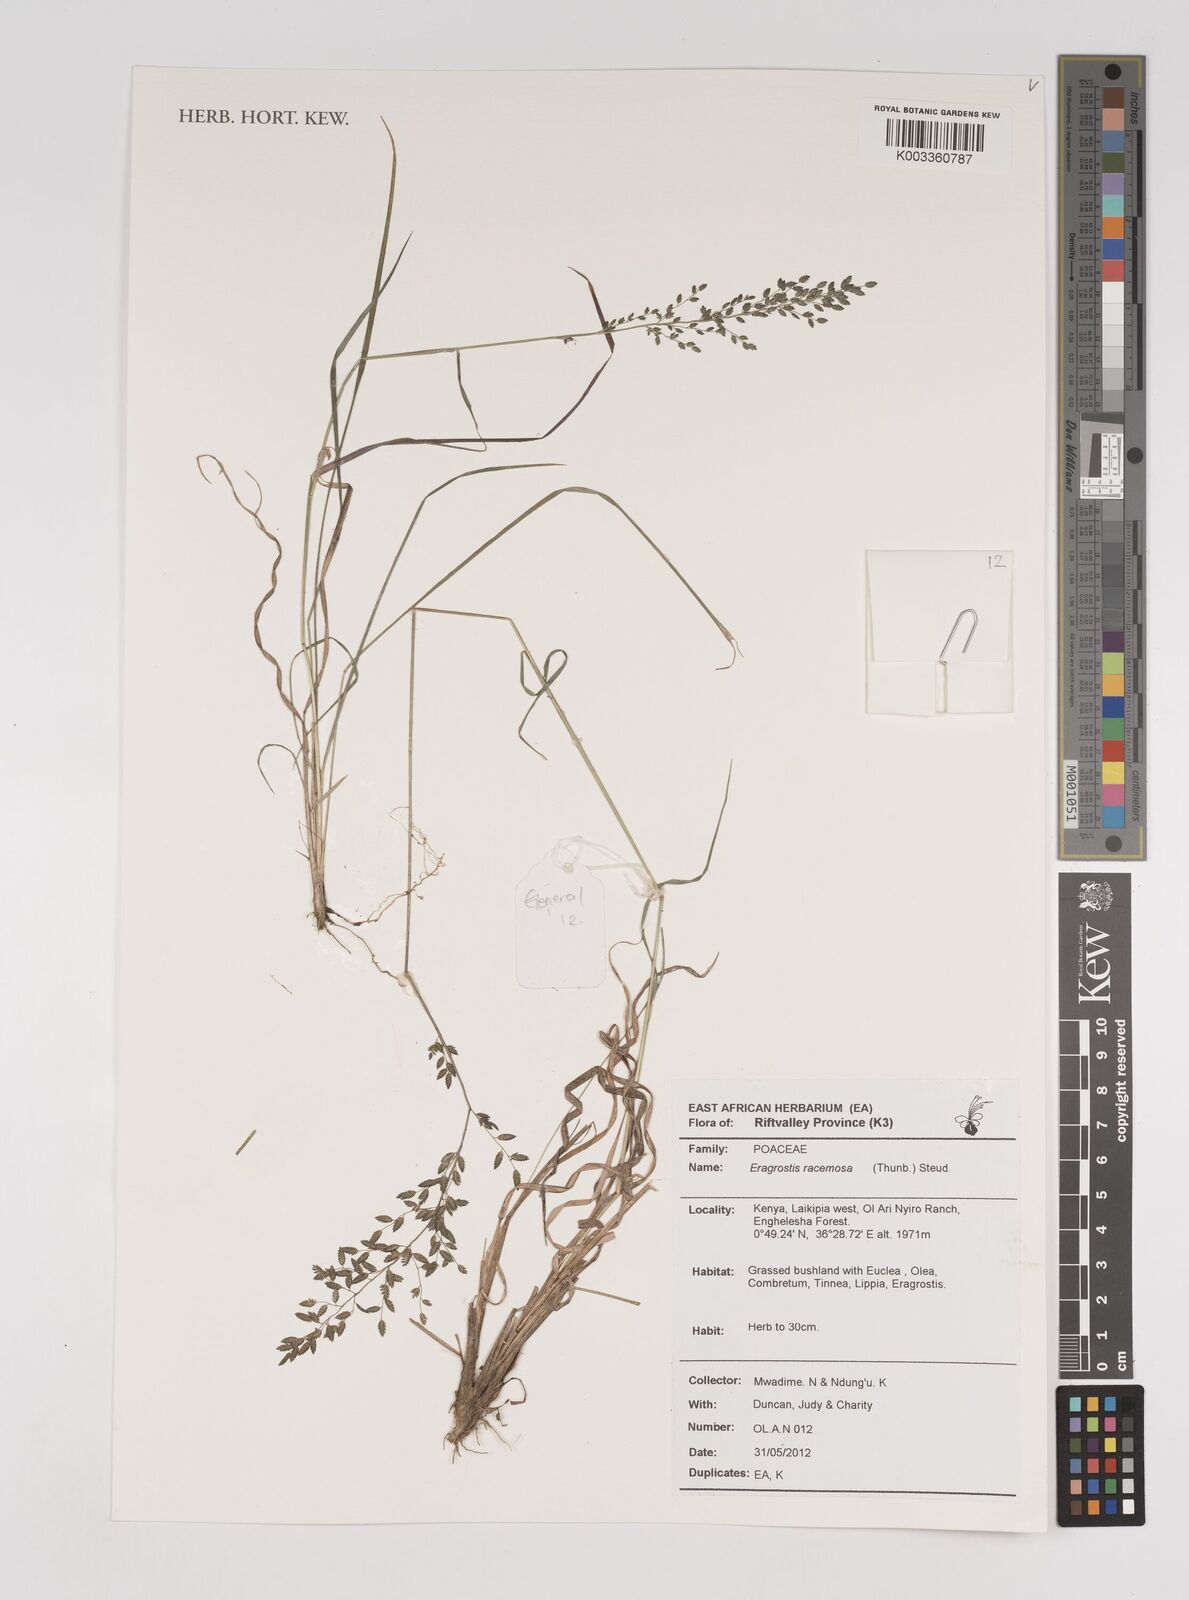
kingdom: Plantae
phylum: Tracheophyta
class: Liliopsida
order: Poales
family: Poaceae
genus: Eragrostis
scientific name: Eragrostis racemosa
